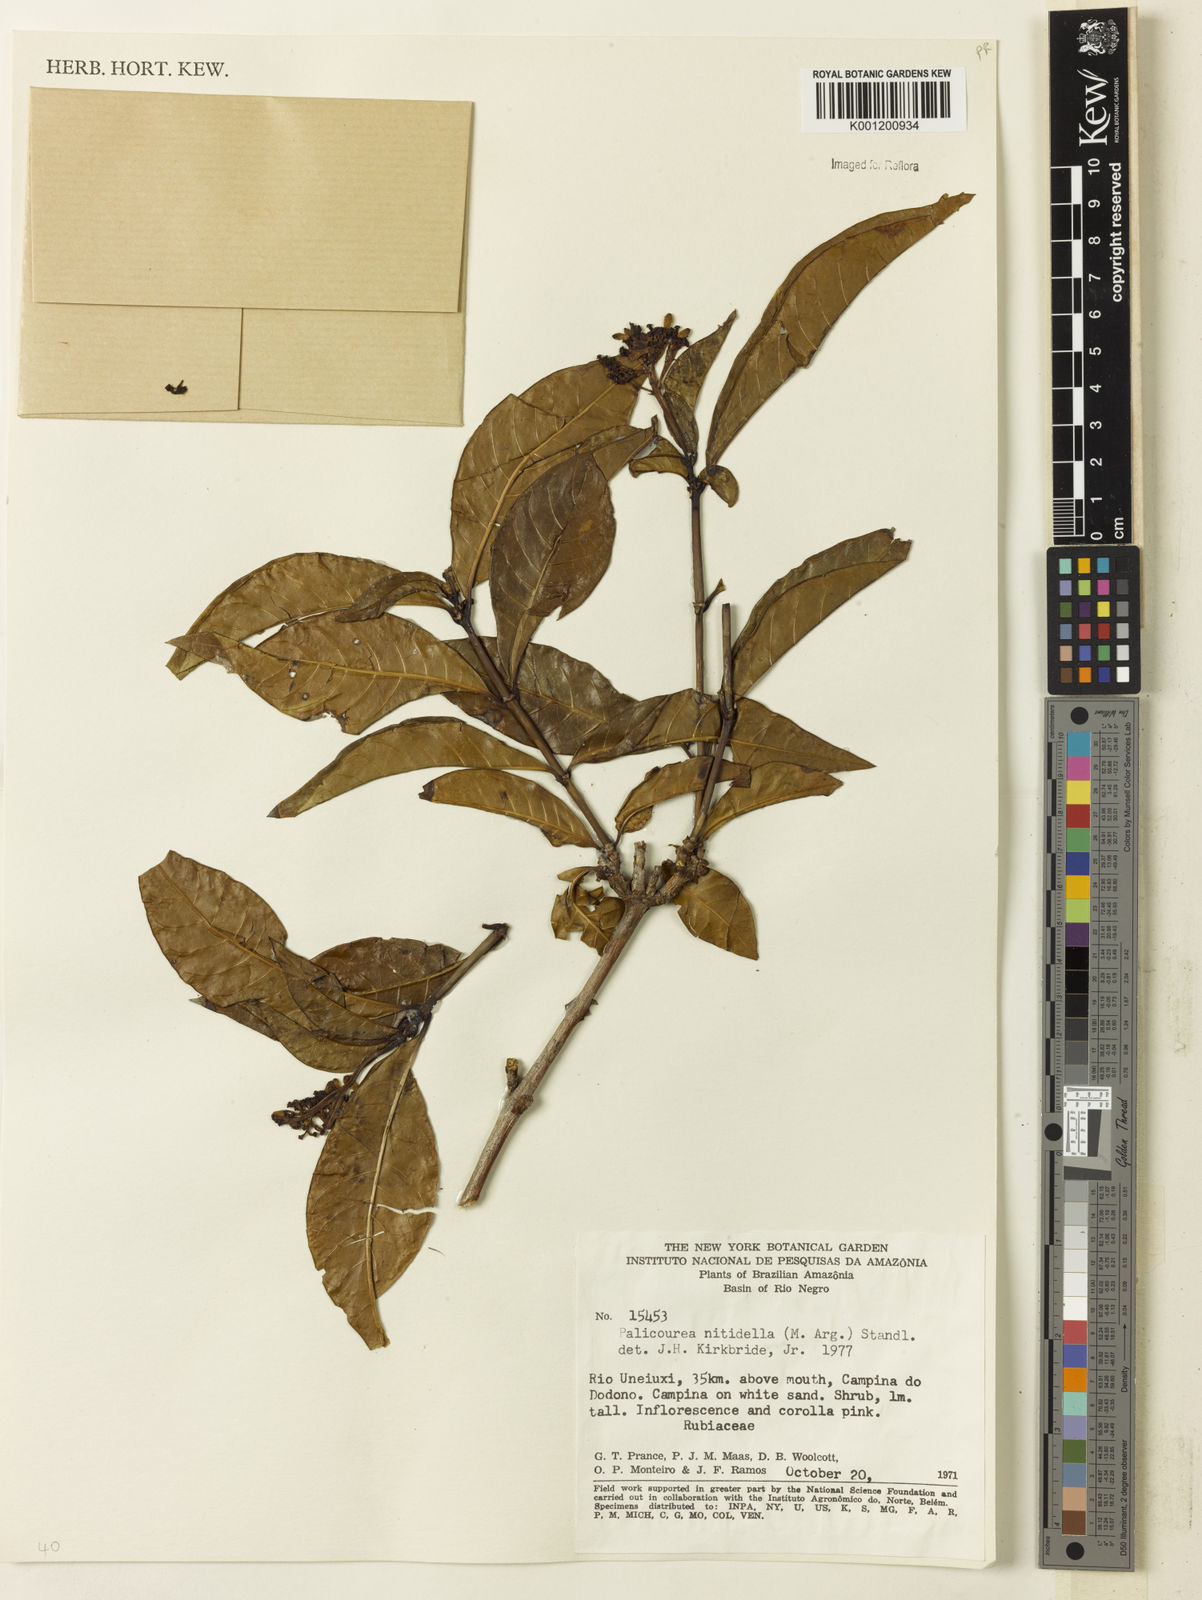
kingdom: Plantae
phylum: Tracheophyta
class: Magnoliopsida
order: Gentianales
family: Rubiaceae
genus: Palicourea
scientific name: Palicourea
